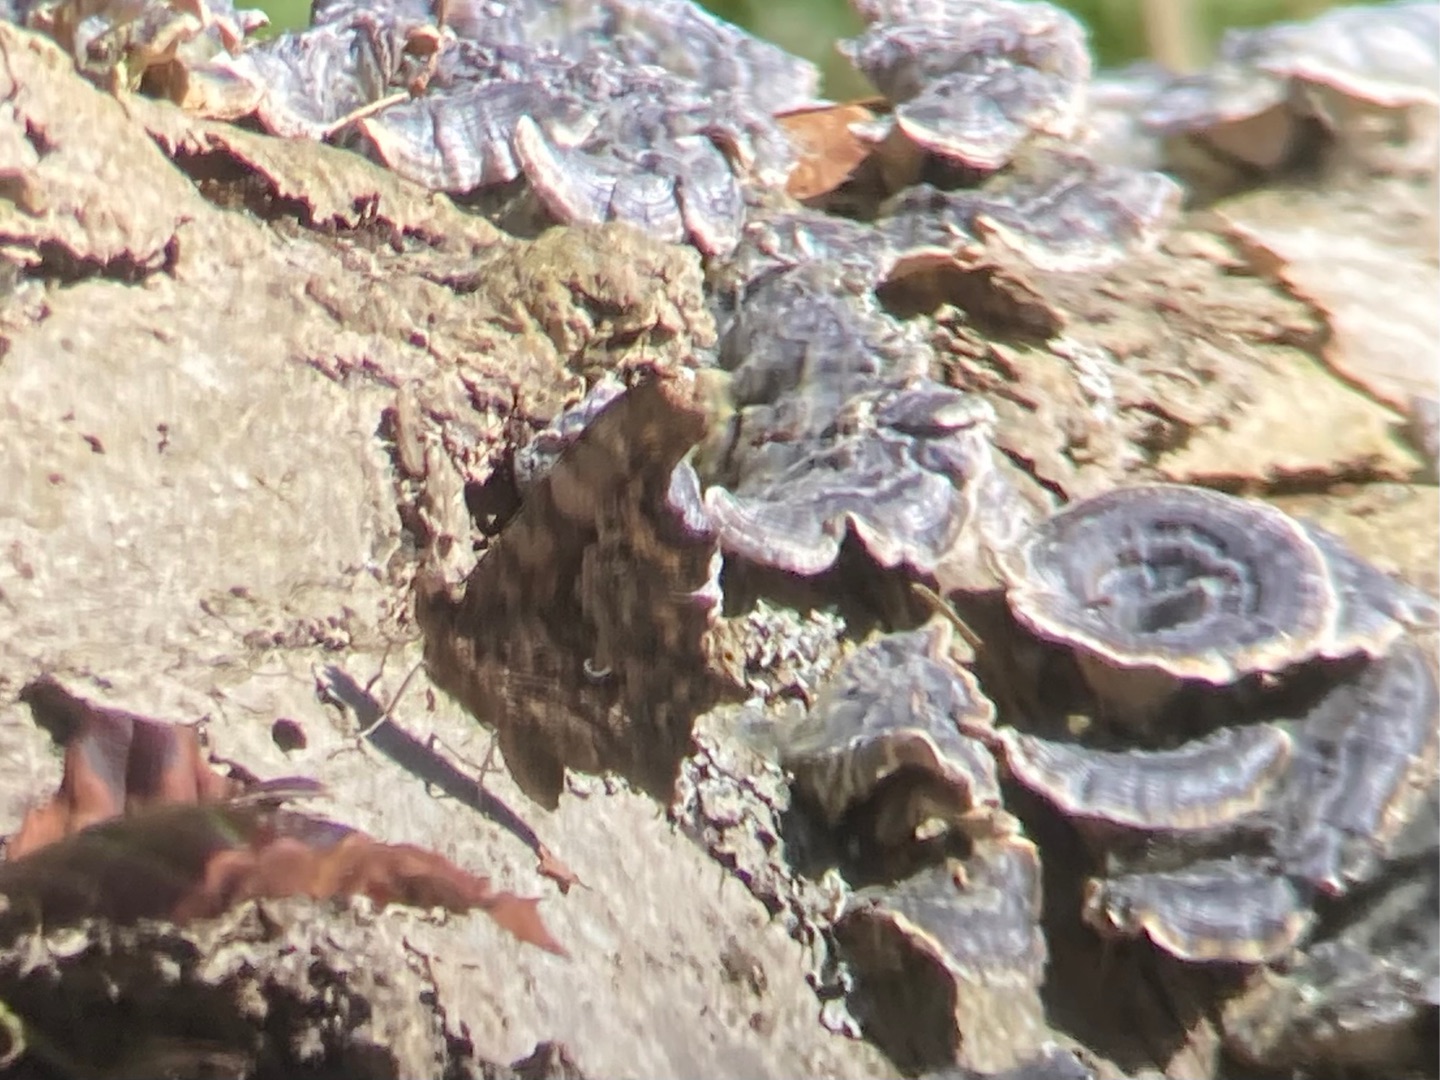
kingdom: Animalia
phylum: Arthropoda
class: Insecta
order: Lepidoptera
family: Nymphalidae
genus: Polygonia
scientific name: Polygonia c-album
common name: Det hvide C
